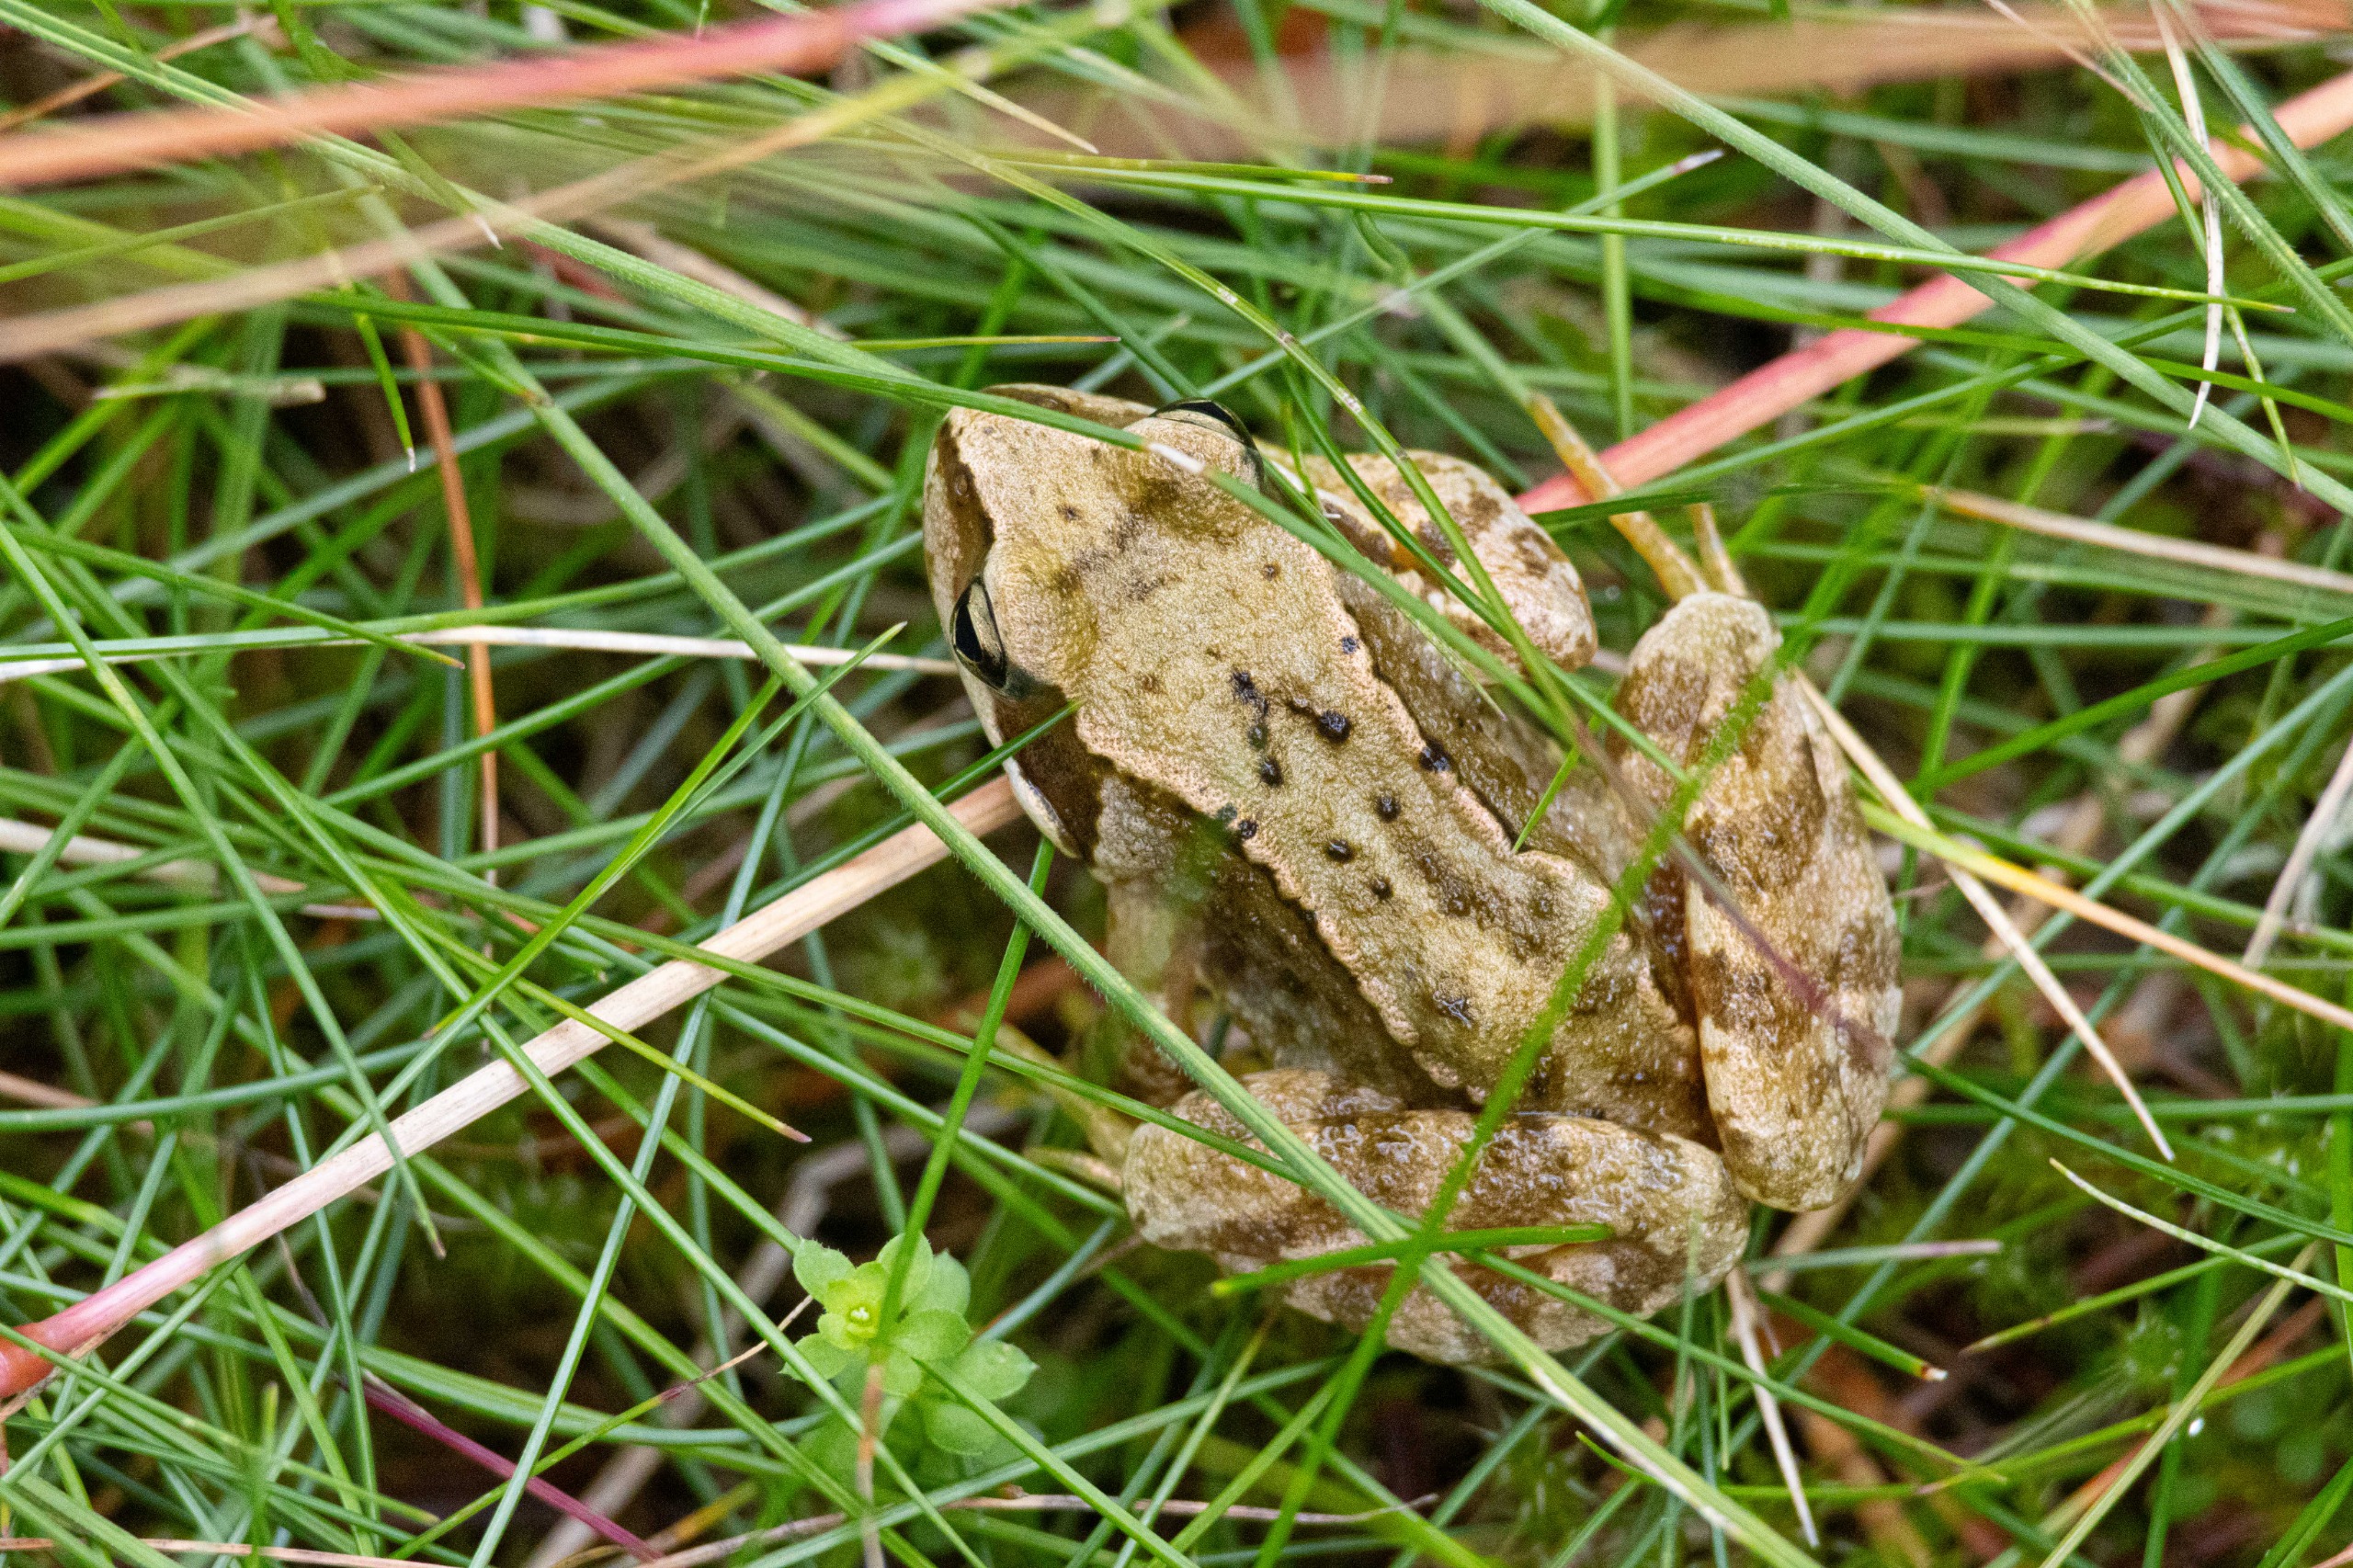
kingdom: Animalia
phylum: Chordata
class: Amphibia
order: Anura
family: Ranidae
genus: Rana
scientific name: Rana temporaria
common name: Butsnudet frø
